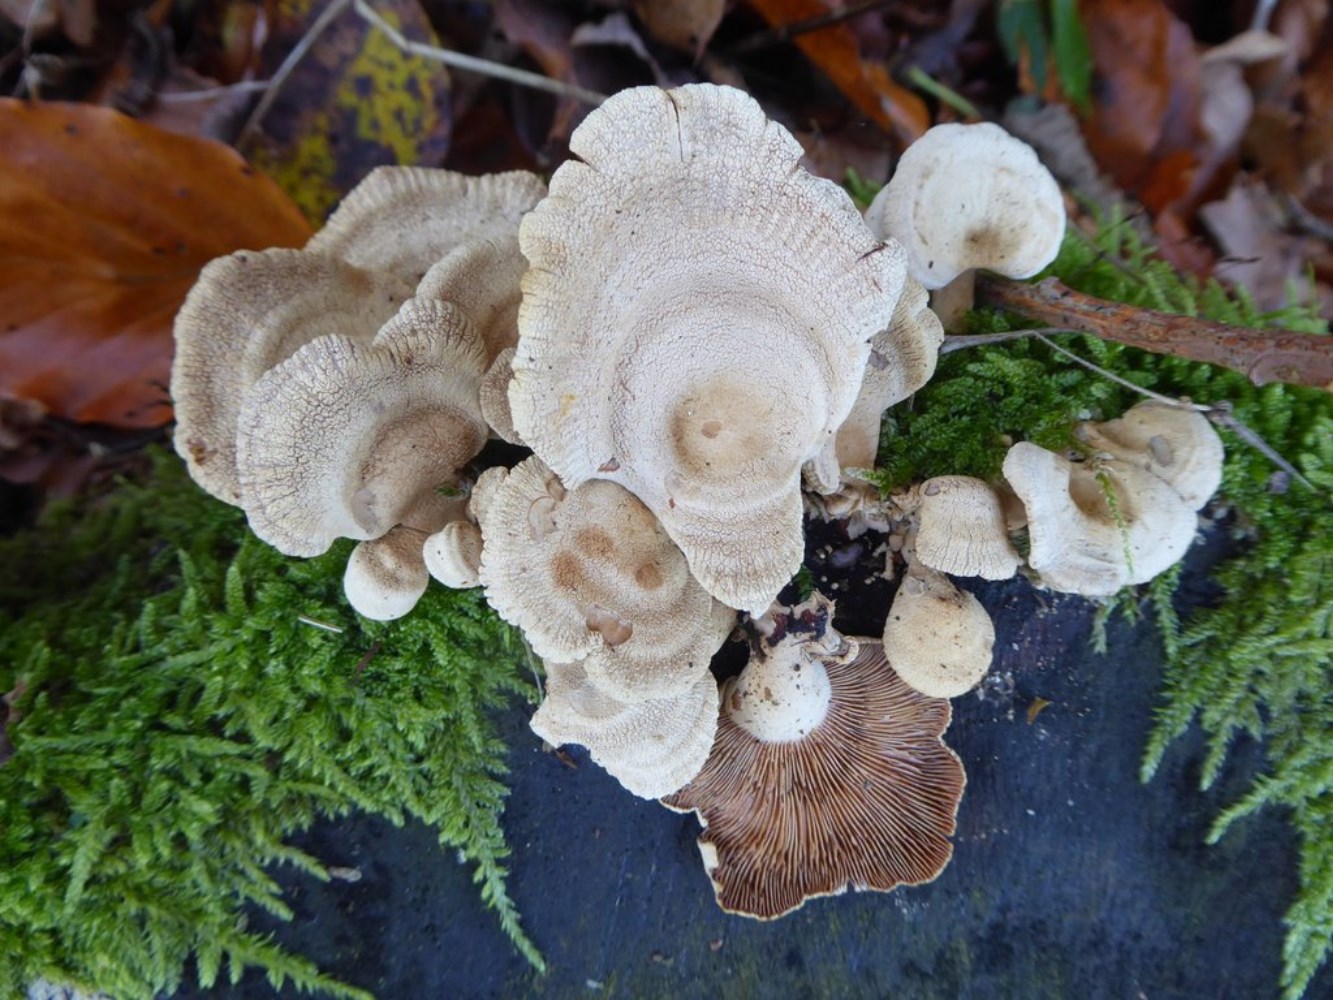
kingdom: Fungi
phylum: Basidiomycota
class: Agaricomycetes
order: Agaricales
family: Mycenaceae
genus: Panellus
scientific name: Panellus stipticus
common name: kliddet epaulethat
